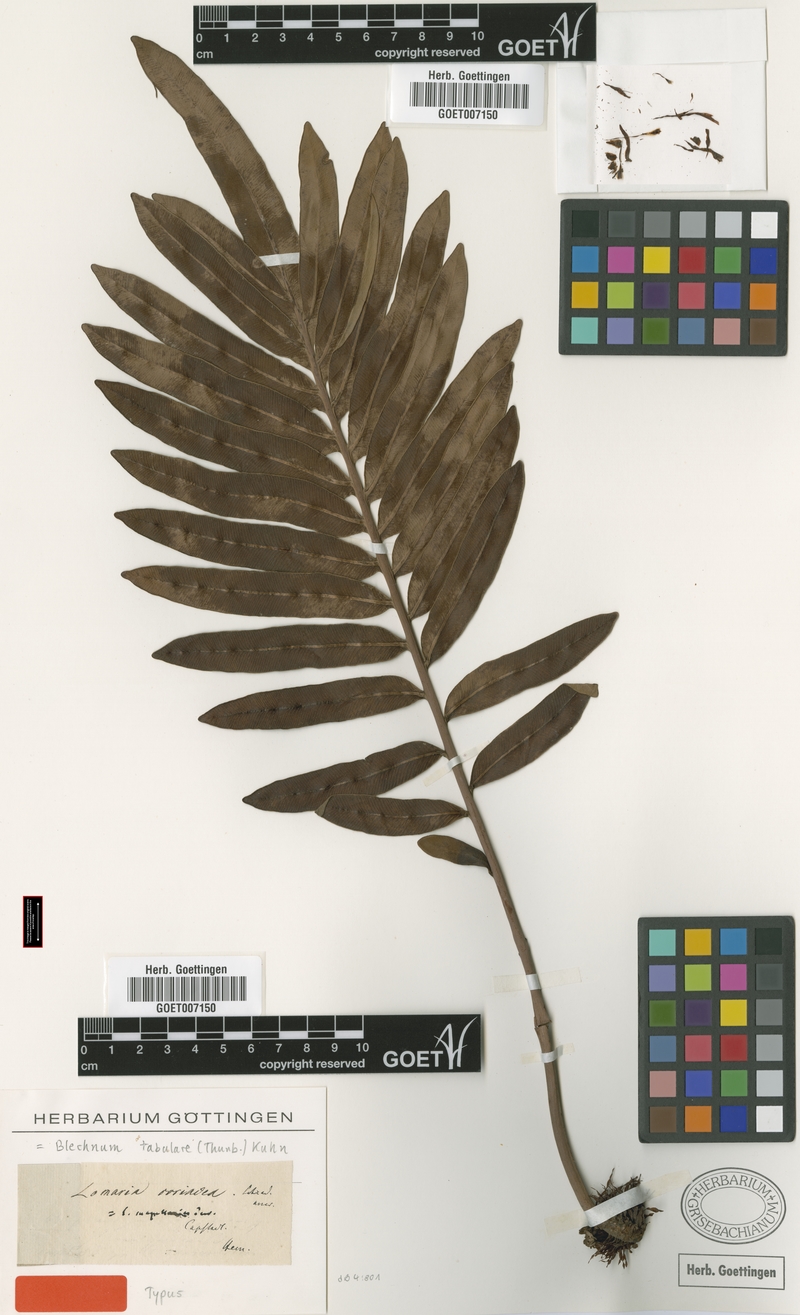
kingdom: Plantae
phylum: Tracheophyta
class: Polypodiopsida
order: Polypodiales
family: Blechnaceae
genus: Lomariocycas
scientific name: Lomariocycas tabularis
